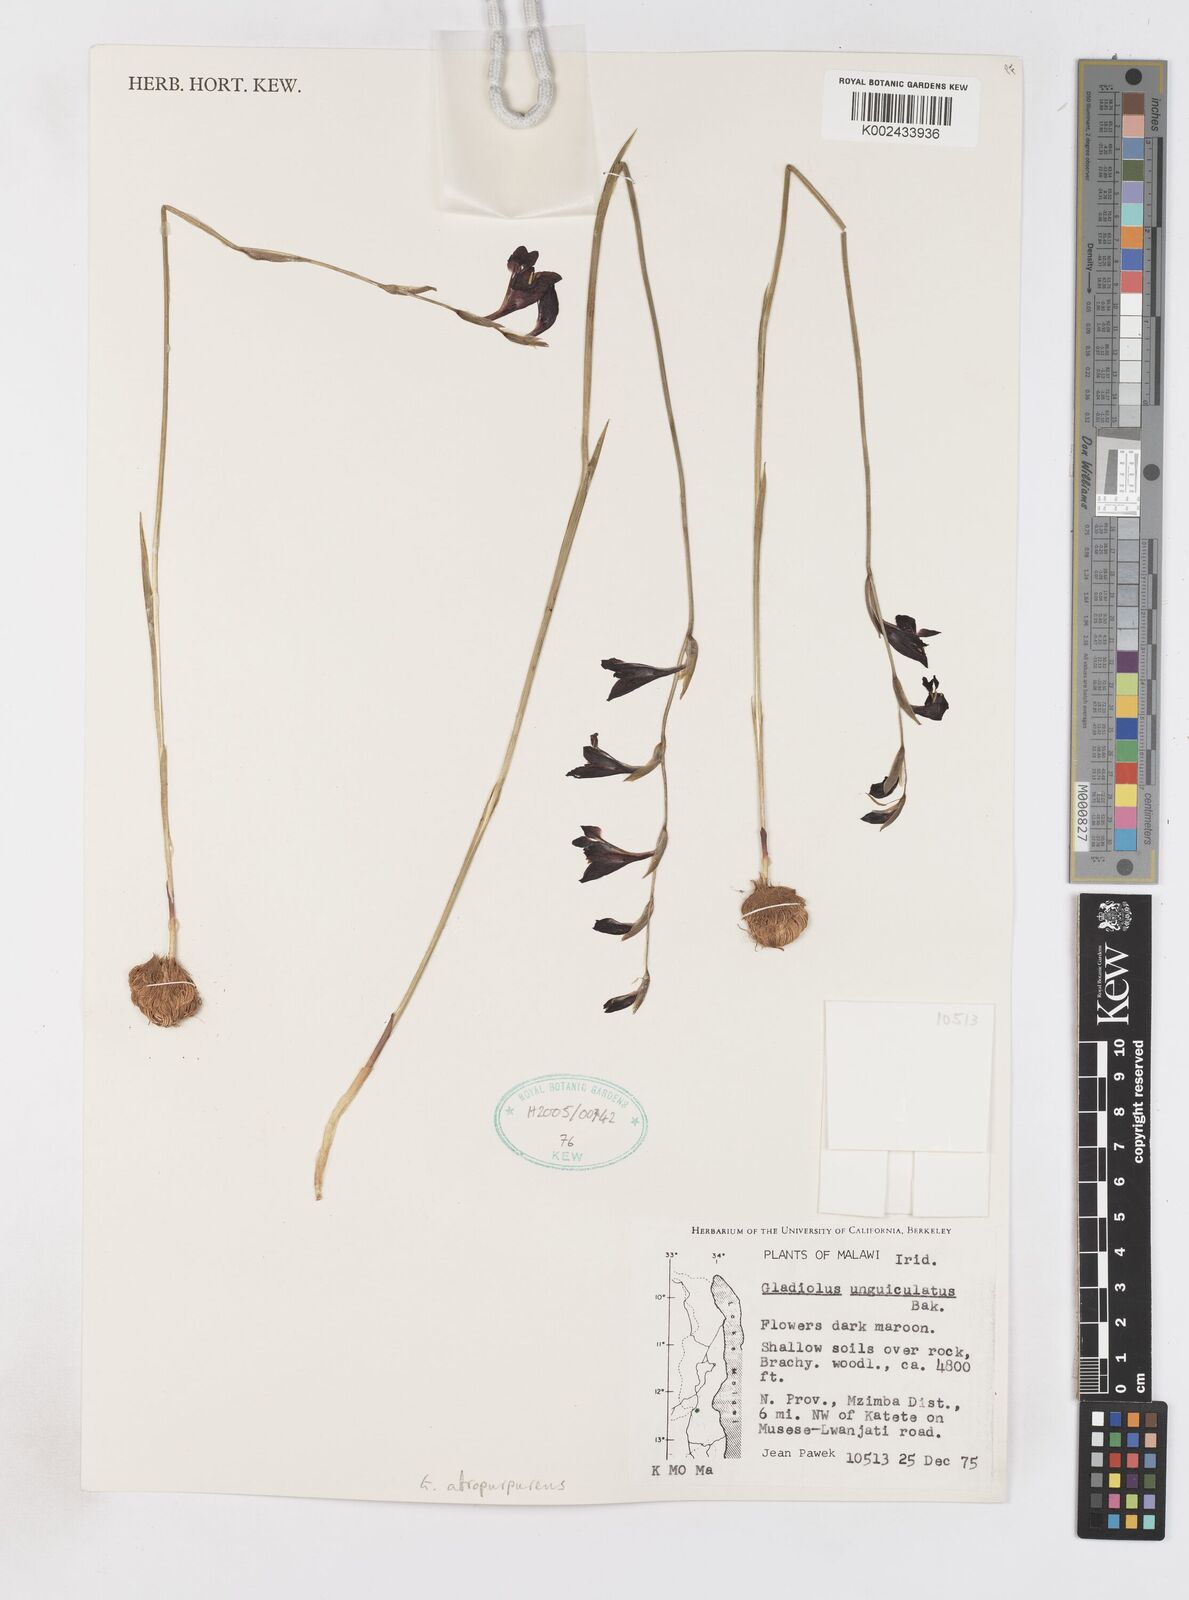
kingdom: Plantae
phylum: Tracheophyta
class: Liliopsida
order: Asparagales
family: Iridaceae
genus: Gladiolus
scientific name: Gladiolus atropurpureus
